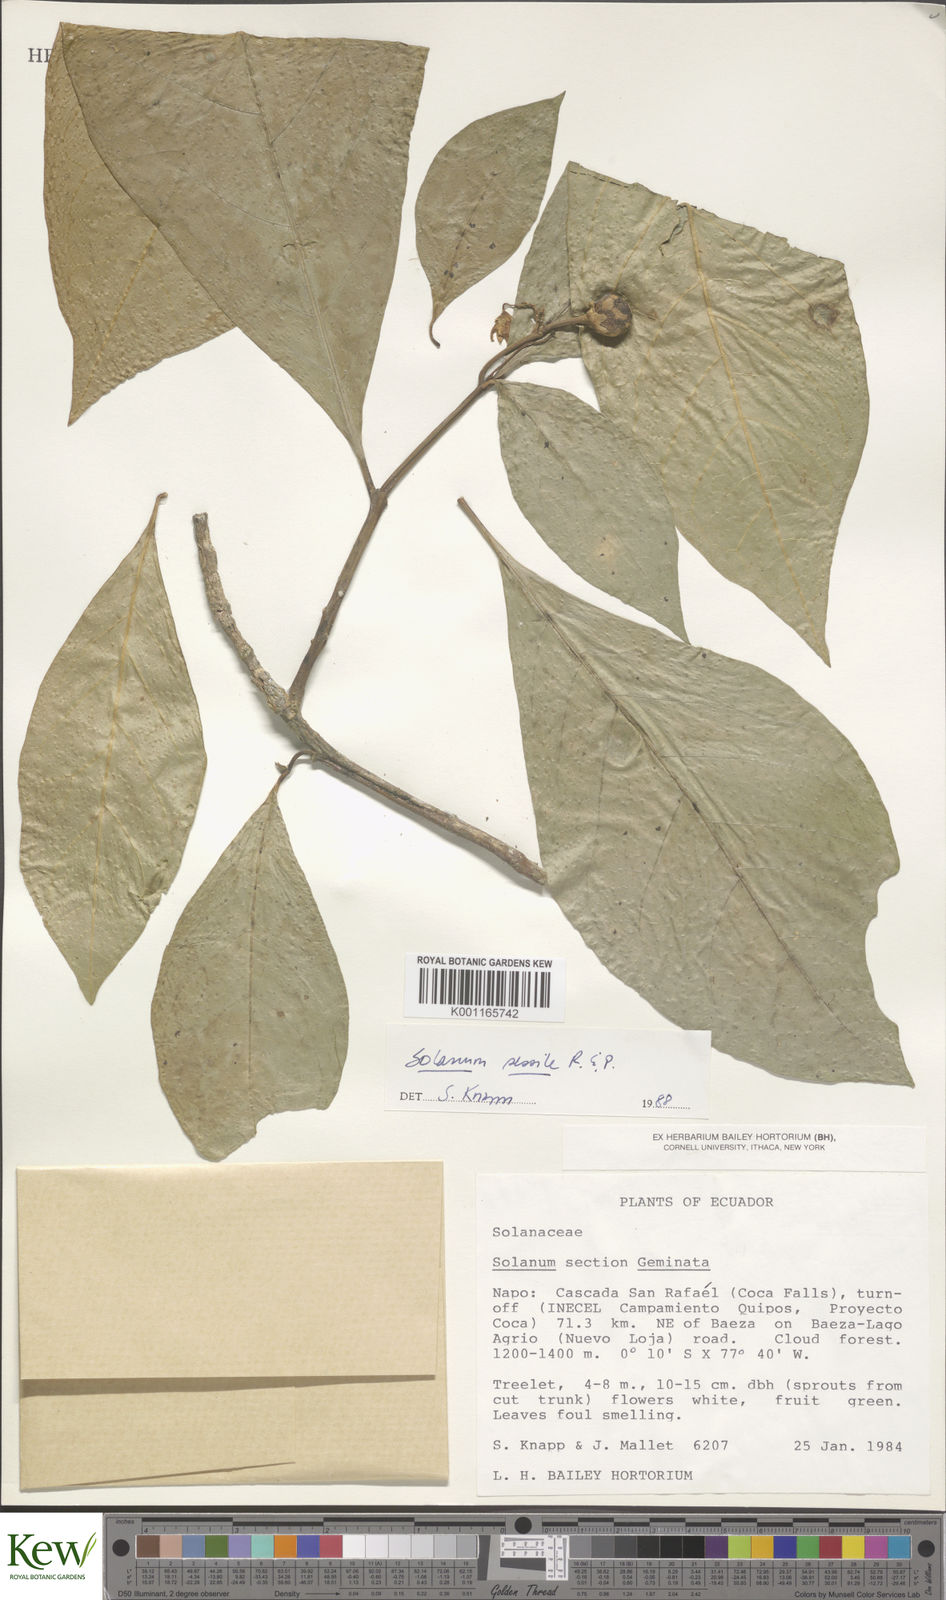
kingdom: Plantae
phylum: Tracheophyta
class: Magnoliopsida
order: Solanales
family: Solanaceae
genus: Solanum
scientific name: Solanum sessile
